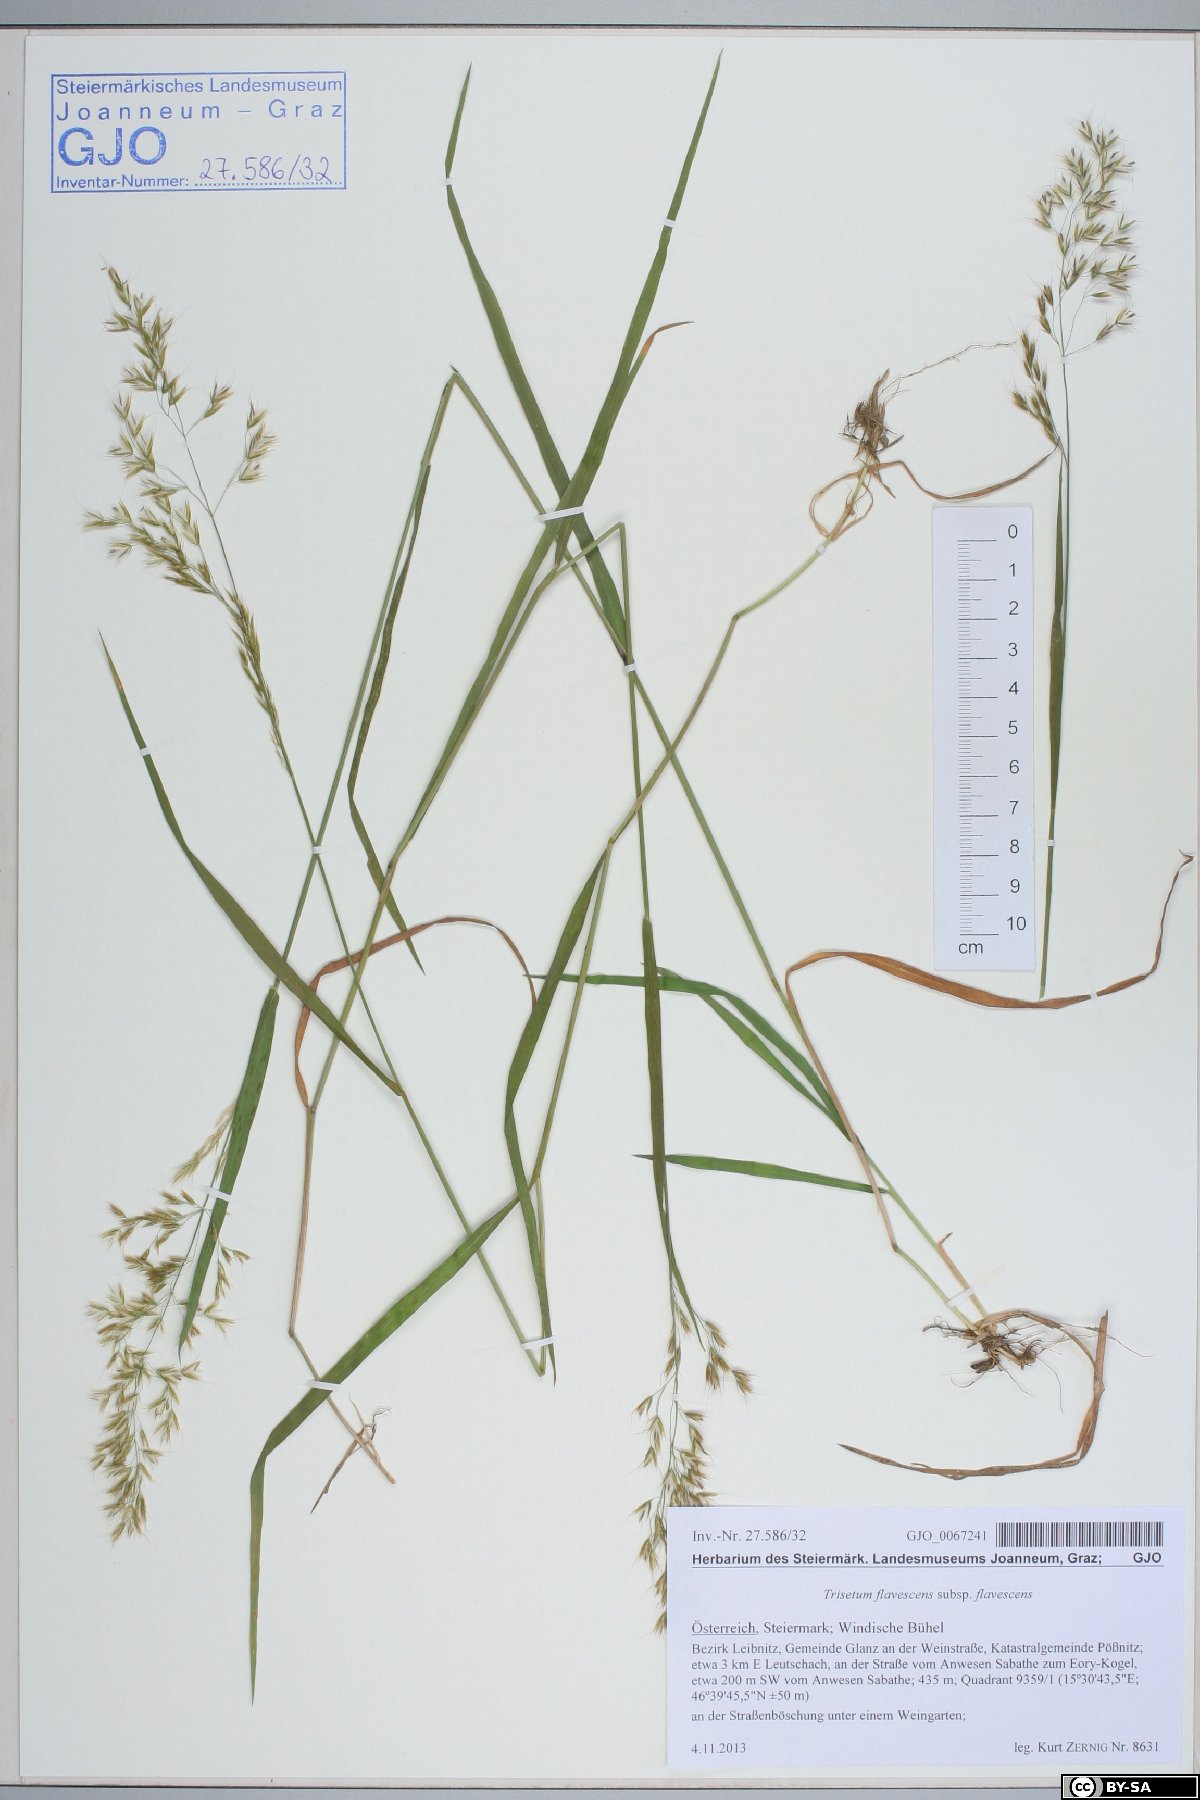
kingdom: Plantae
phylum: Tracheophyta
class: Liliopsida
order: Poales
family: Poaceae
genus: Trisetum
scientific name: Trisetum flavescens
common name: Yellow oat-grass
